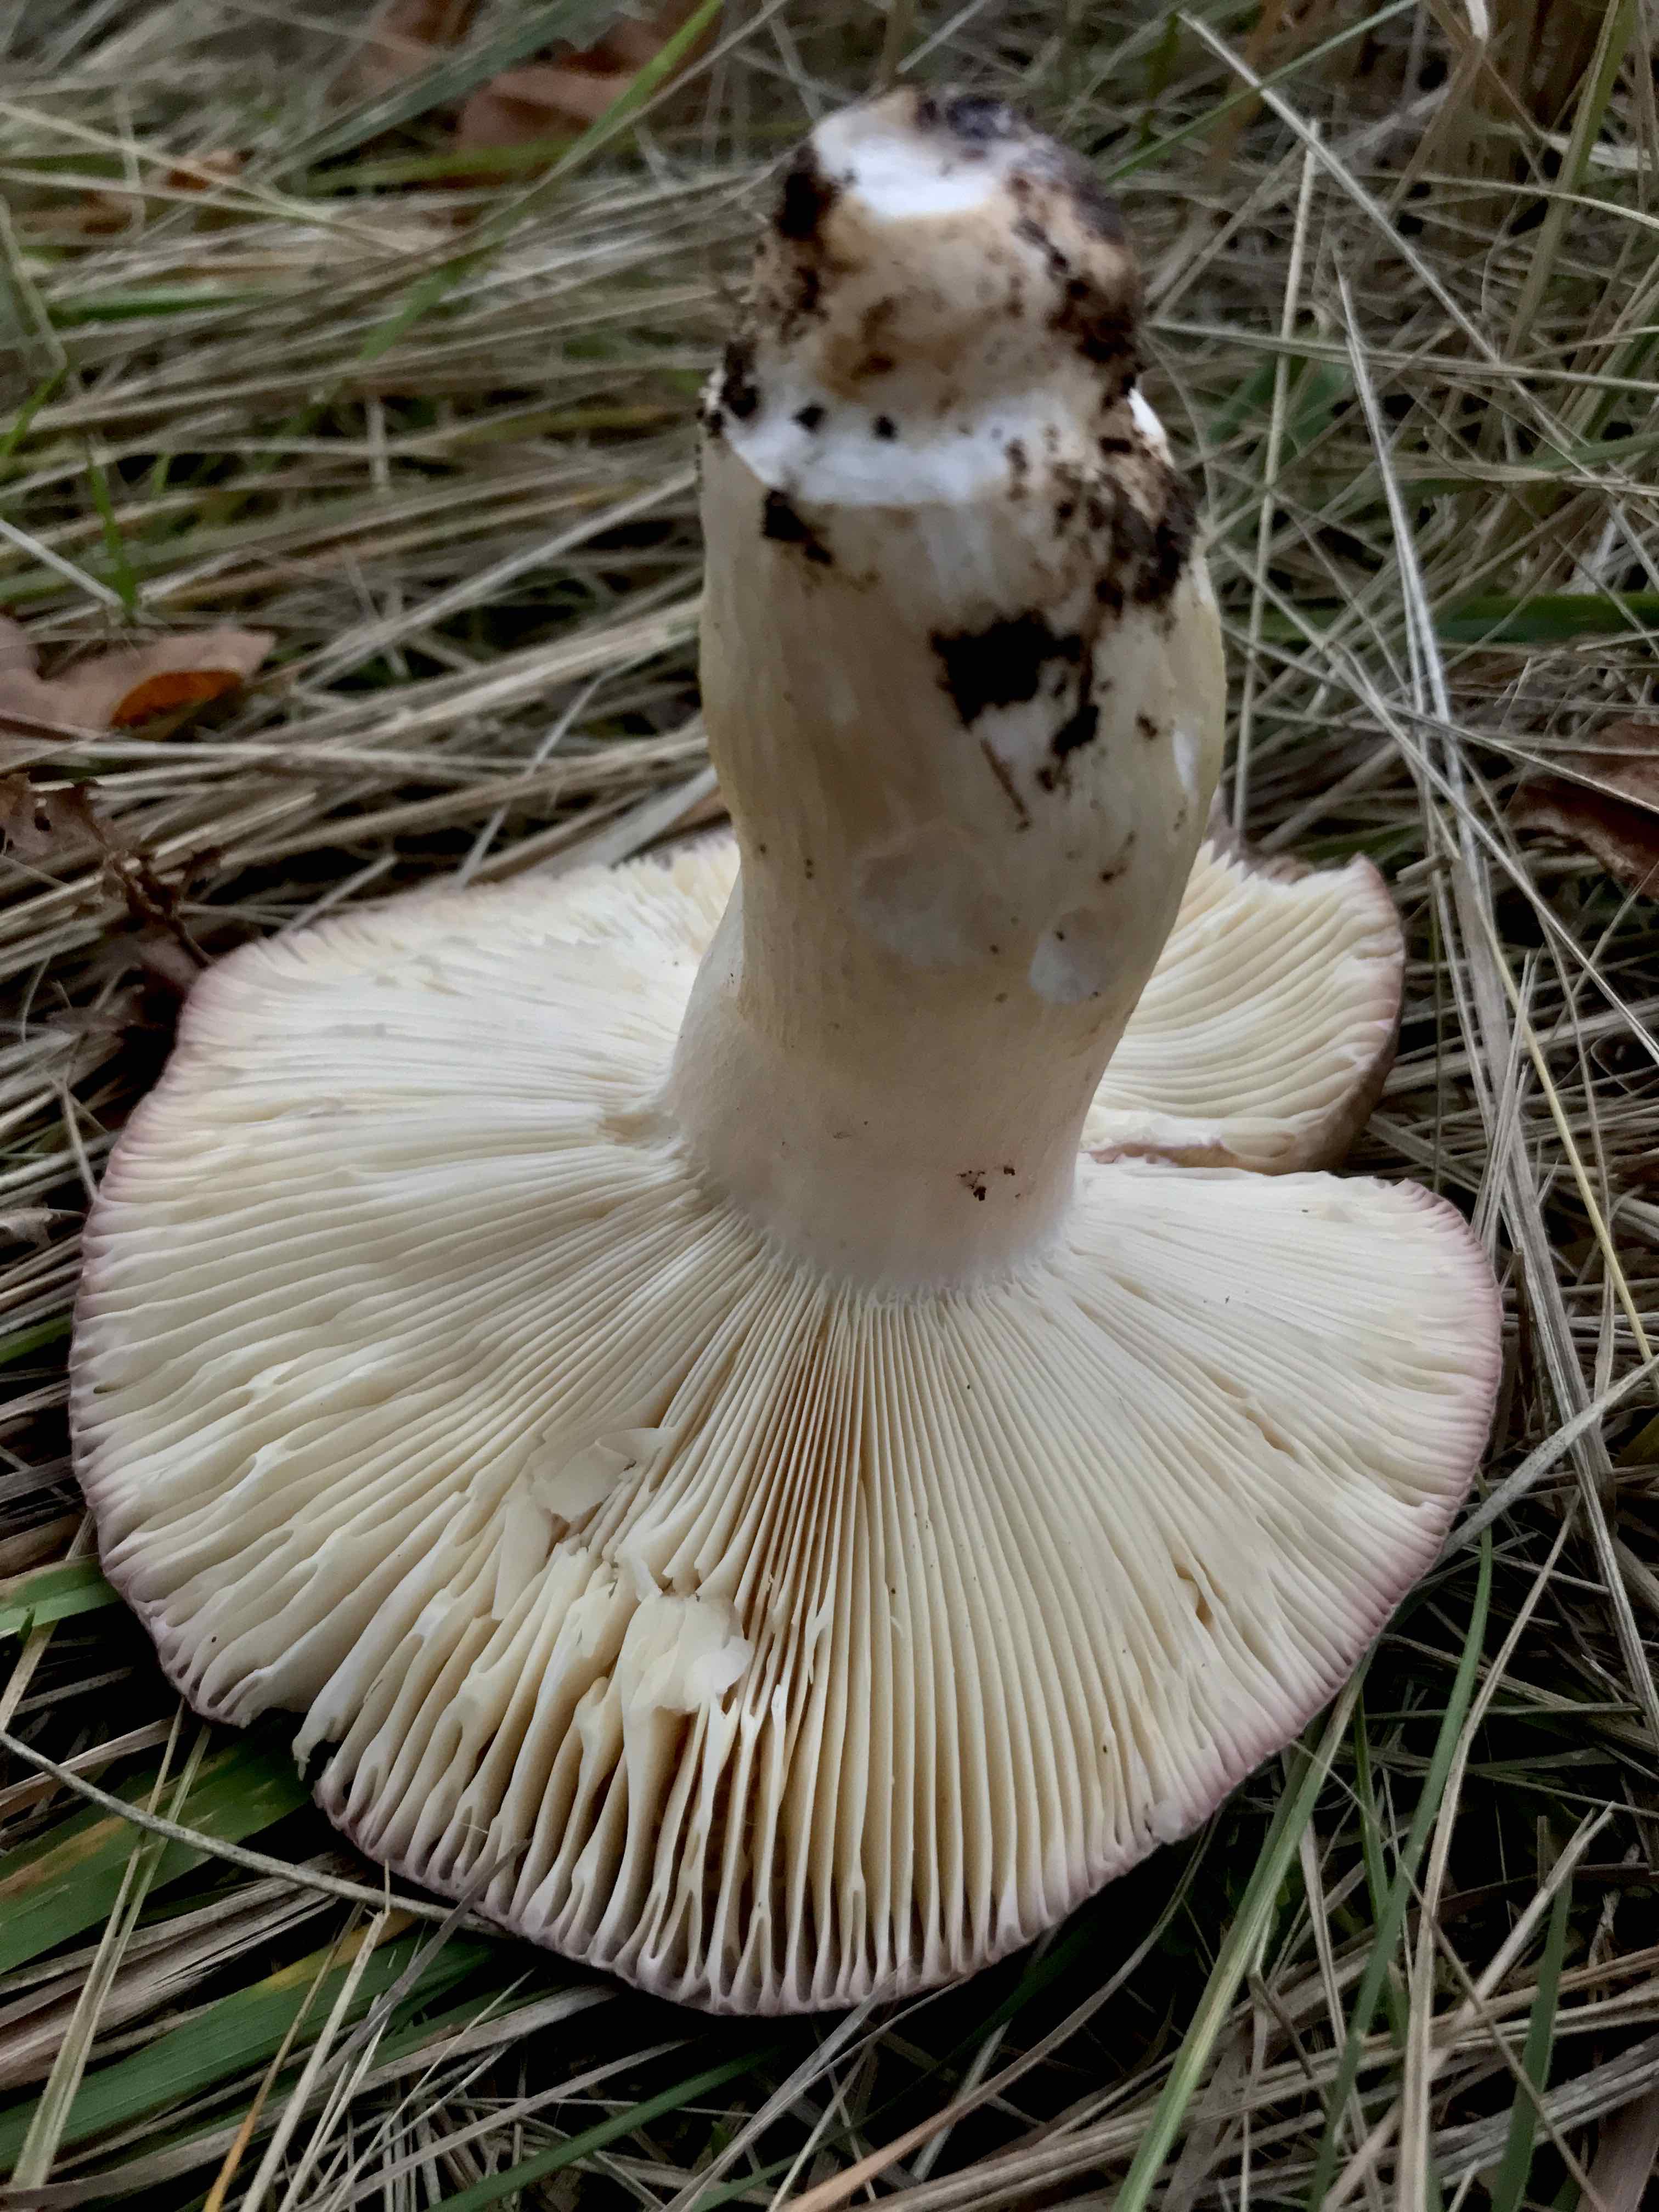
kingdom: Fungi
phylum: Basidiomycota
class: Agaricomycetes
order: Russulales
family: Russulaceae
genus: Russula
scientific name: Russula
